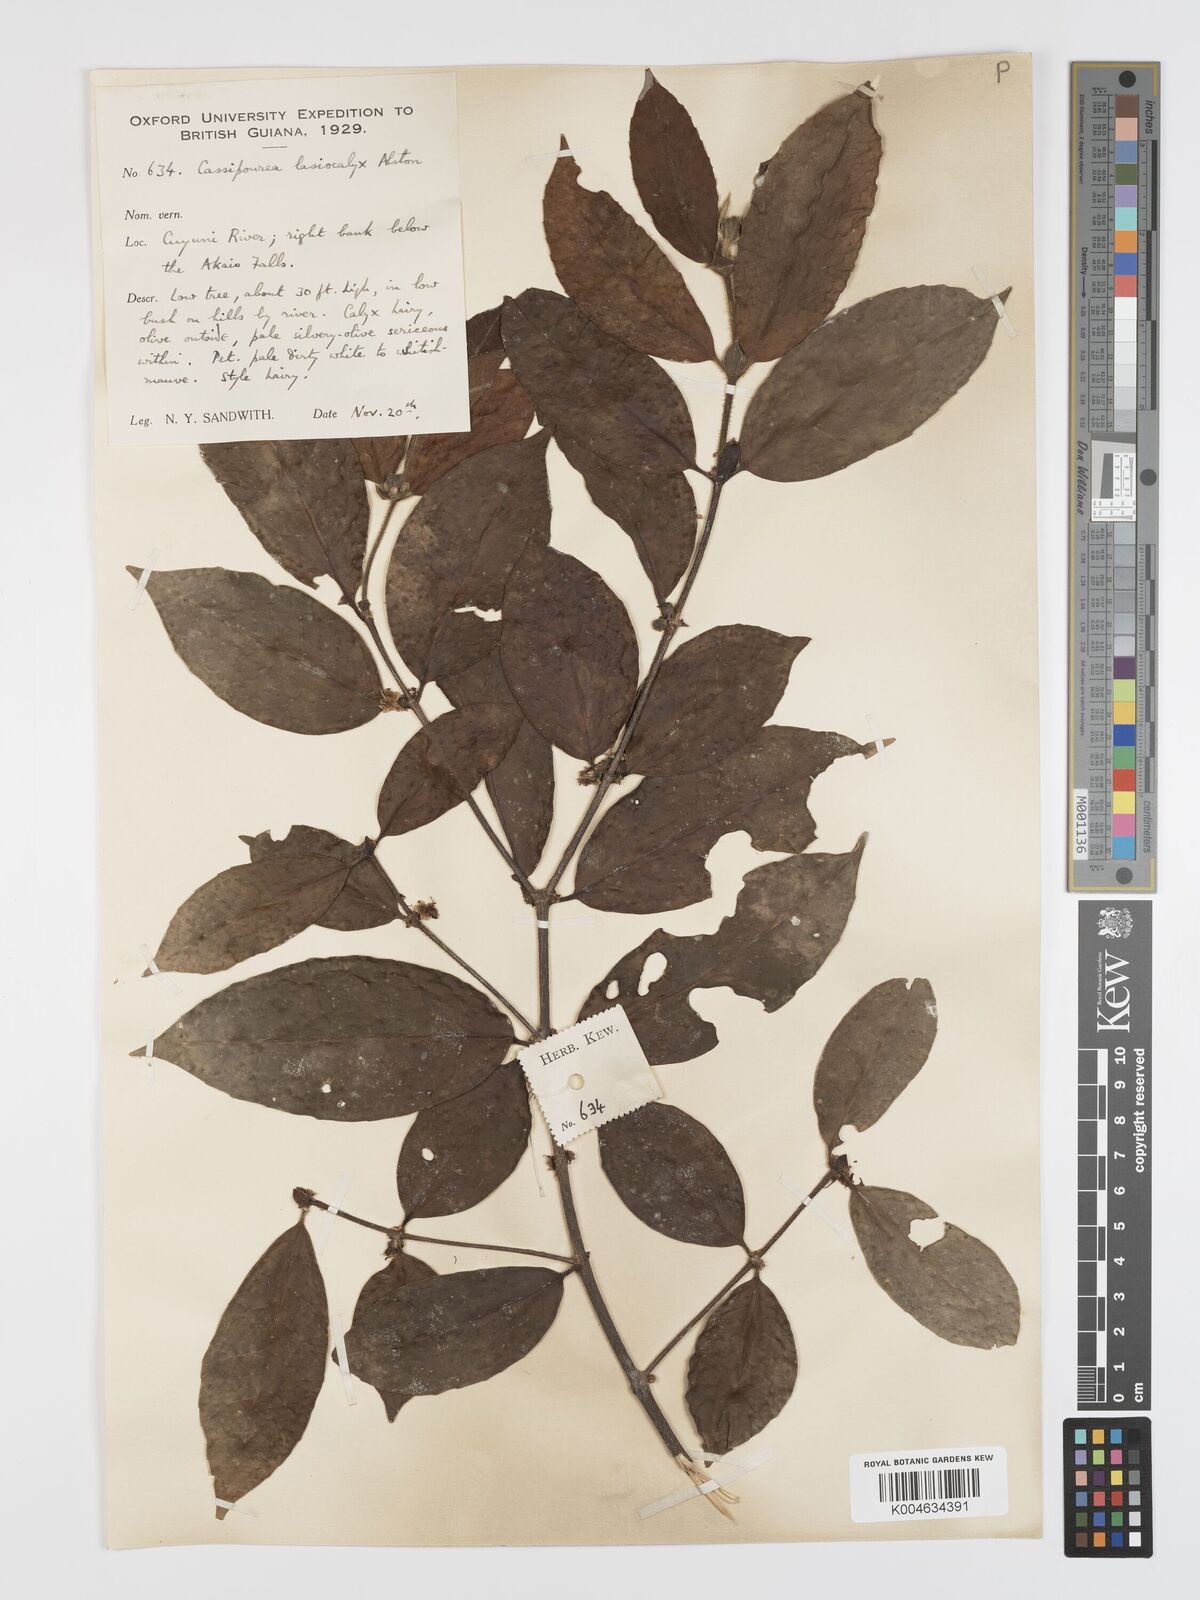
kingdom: Plantae
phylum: Tracheophyta
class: Magnoliopsida
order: Malpighiales
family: Rhizophoraceae
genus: Cassipourea
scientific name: Cassipourea lasiocalyx
